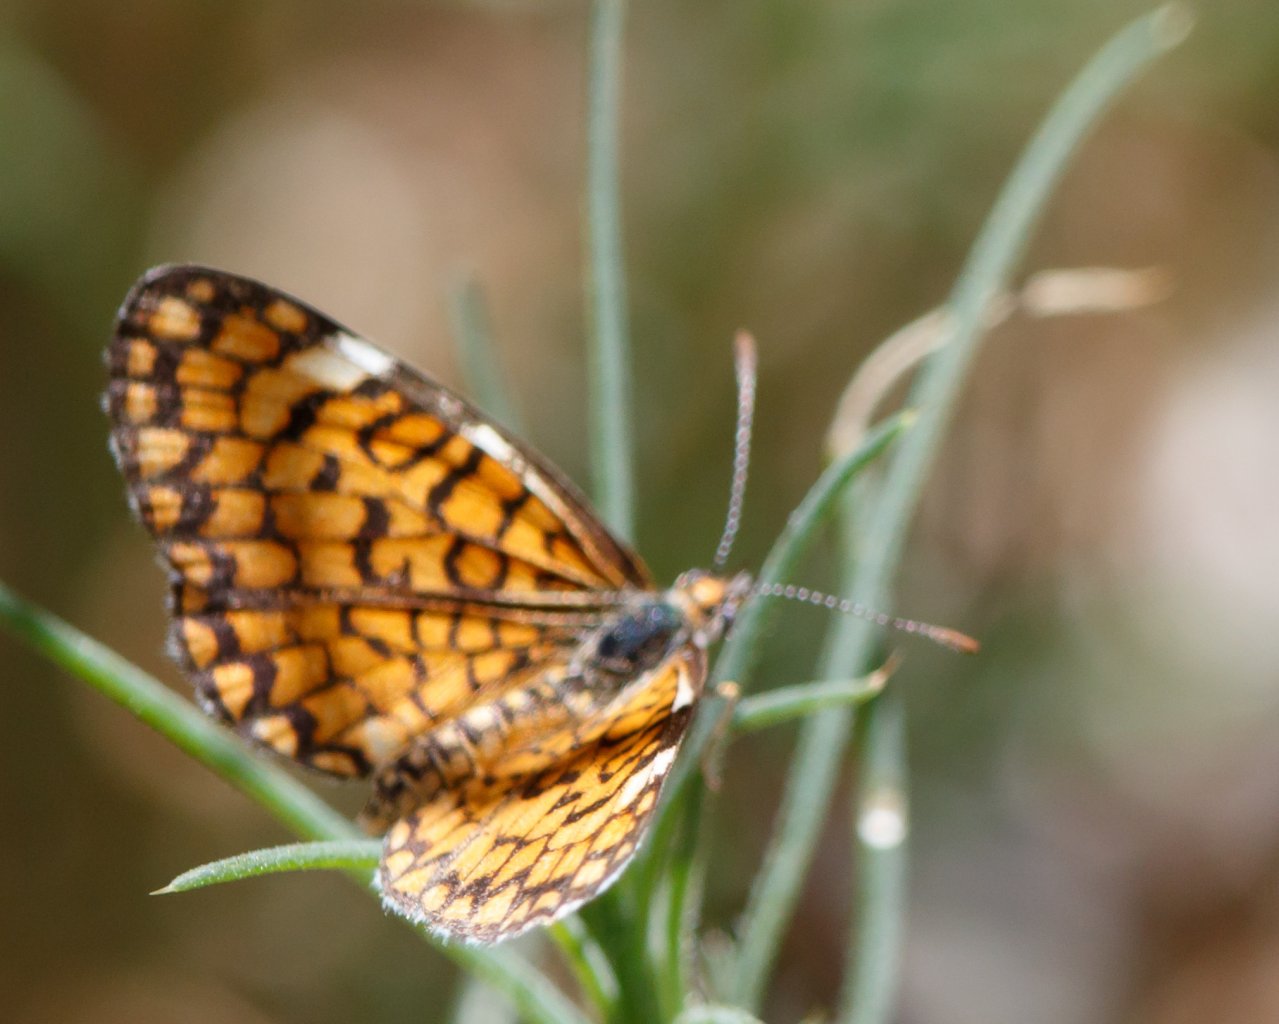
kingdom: Animalia
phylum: Arthropoda
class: Insecta
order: Lepidoptera
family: Nymphalidae
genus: Poladryas
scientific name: Poladryas minuta
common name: Arachne Checkerspot
